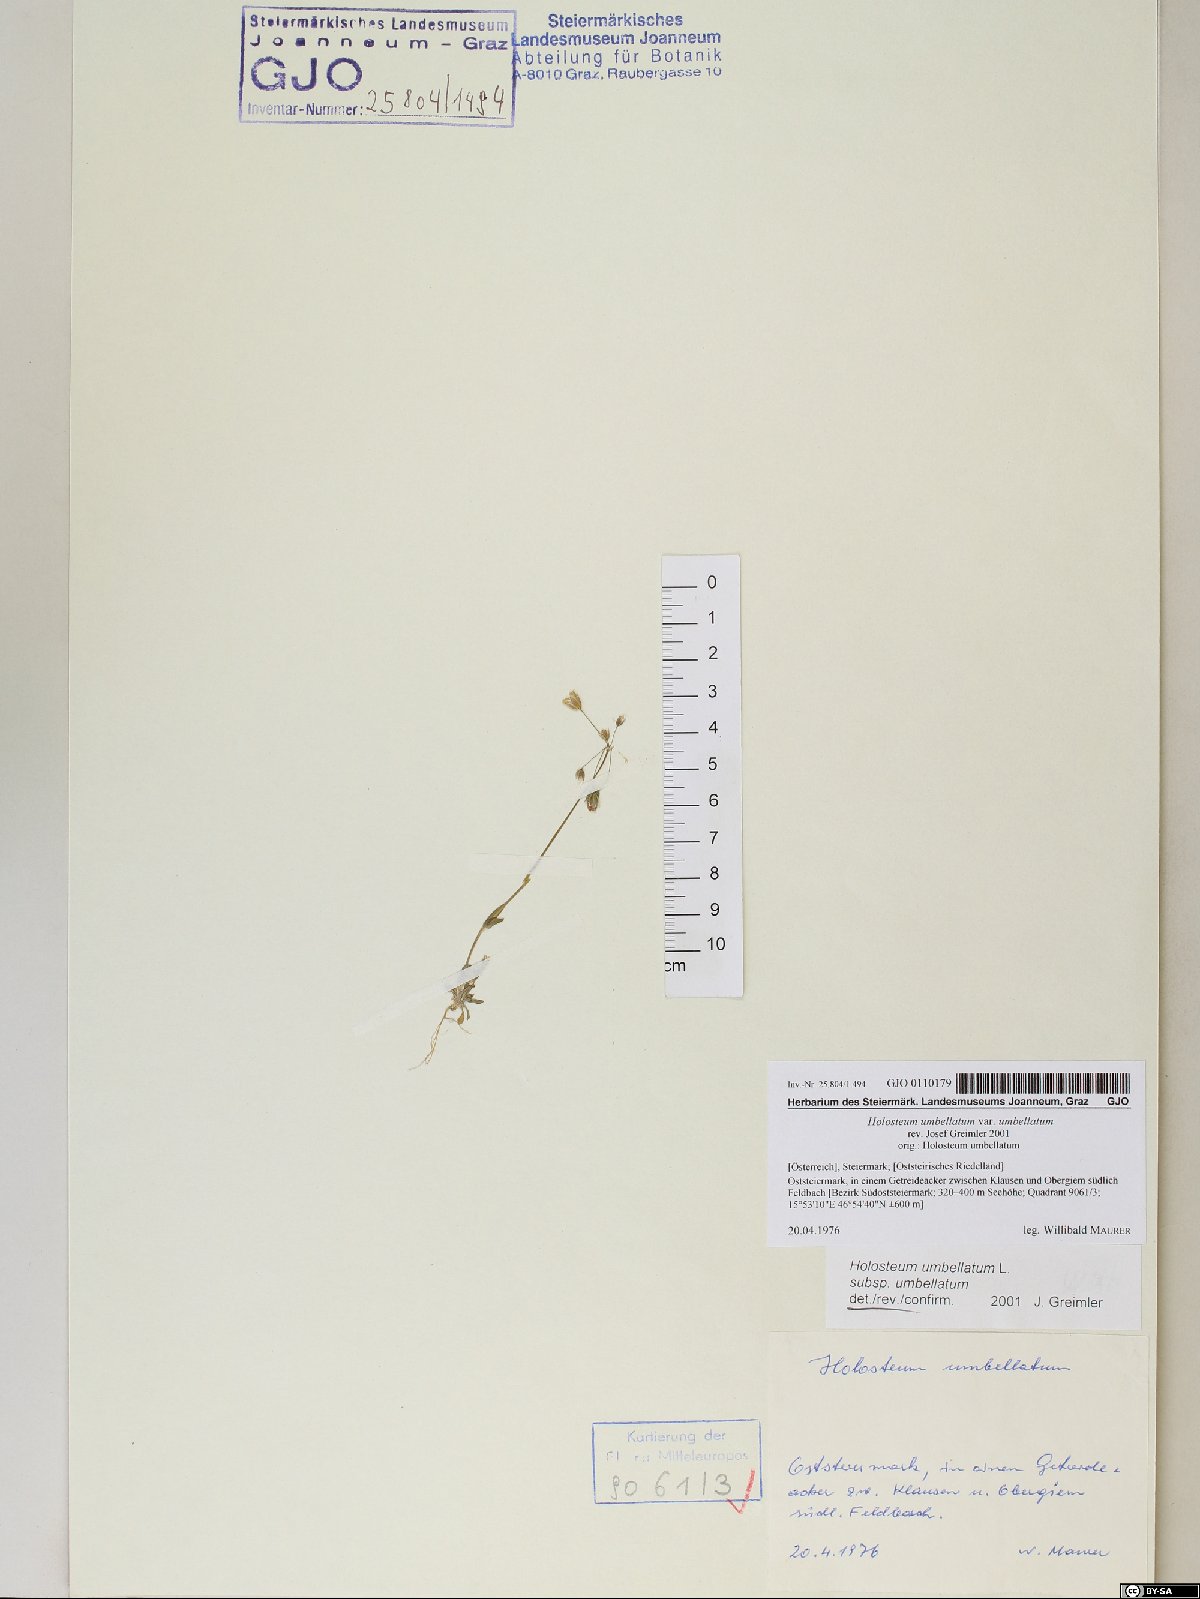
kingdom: Plantae
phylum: Tracheophyta
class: Magnoliopsida
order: Caryophyllales
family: Caryophyllaceae
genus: Holosteum
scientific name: Holosteum umbellatum
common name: Jagged chickweed
